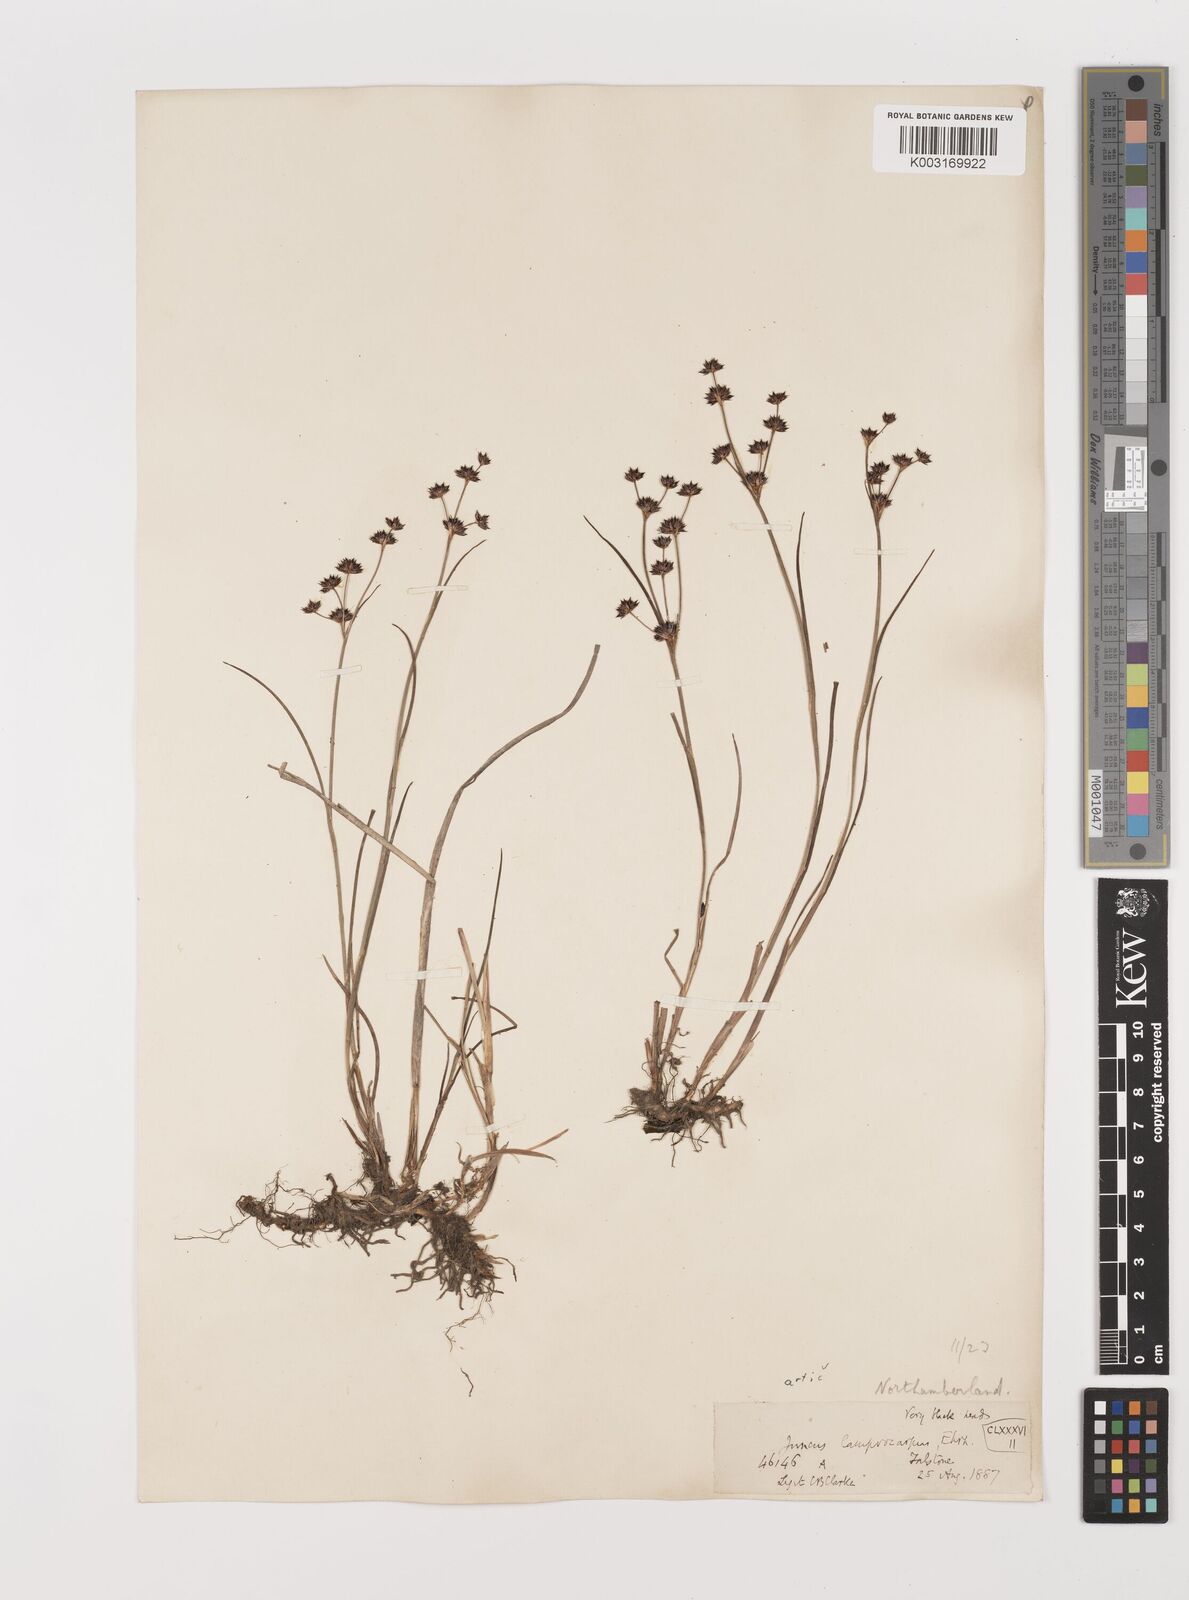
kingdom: Plantae
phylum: Tracheophyta
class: Liliopsida
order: Poales
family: Juncaceae
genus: Juncus
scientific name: Juncus articulatus
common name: Jointed rush
